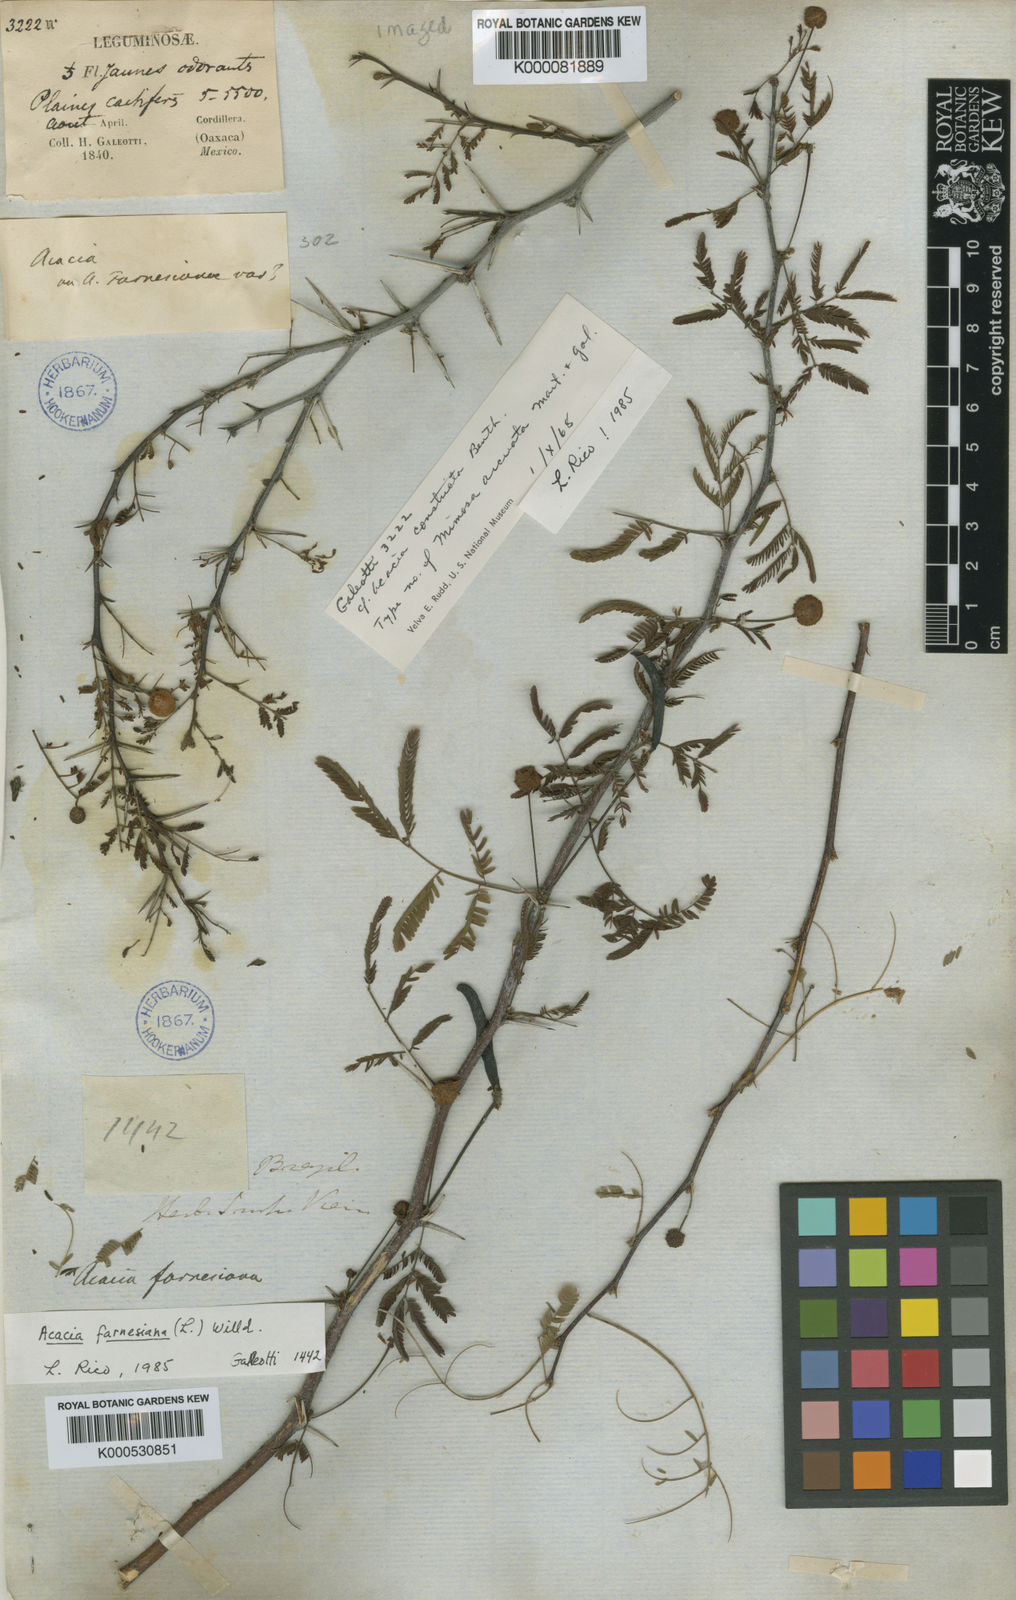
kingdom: Plantae
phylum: Tracheophyta
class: Magnoliopsida
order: Fabales
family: Fabaceae
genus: Acacia
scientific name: Acacia
